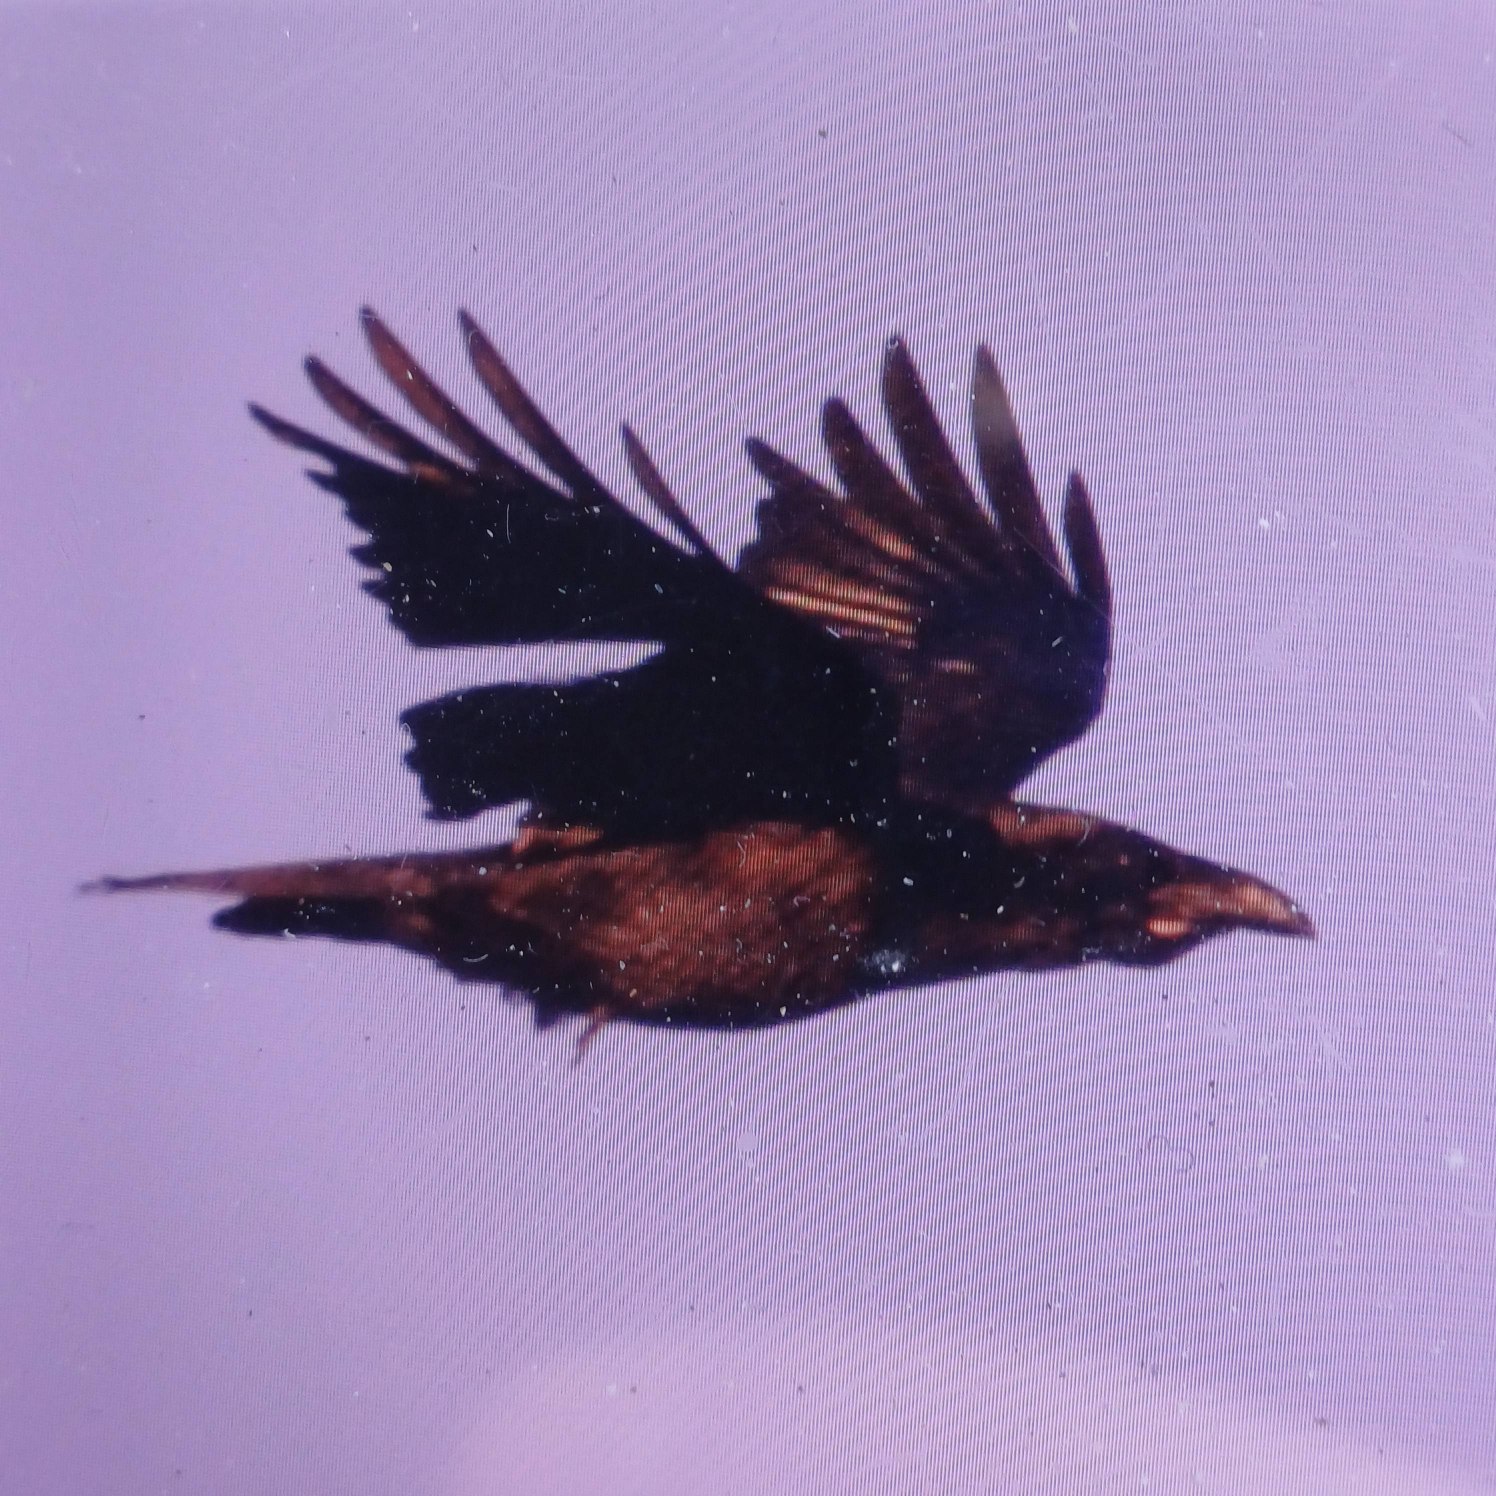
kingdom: Animalia
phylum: Chordata
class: Aves
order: Passeriformes
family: Corvidae
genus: Corvus
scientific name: Corvus corax
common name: Ravn
